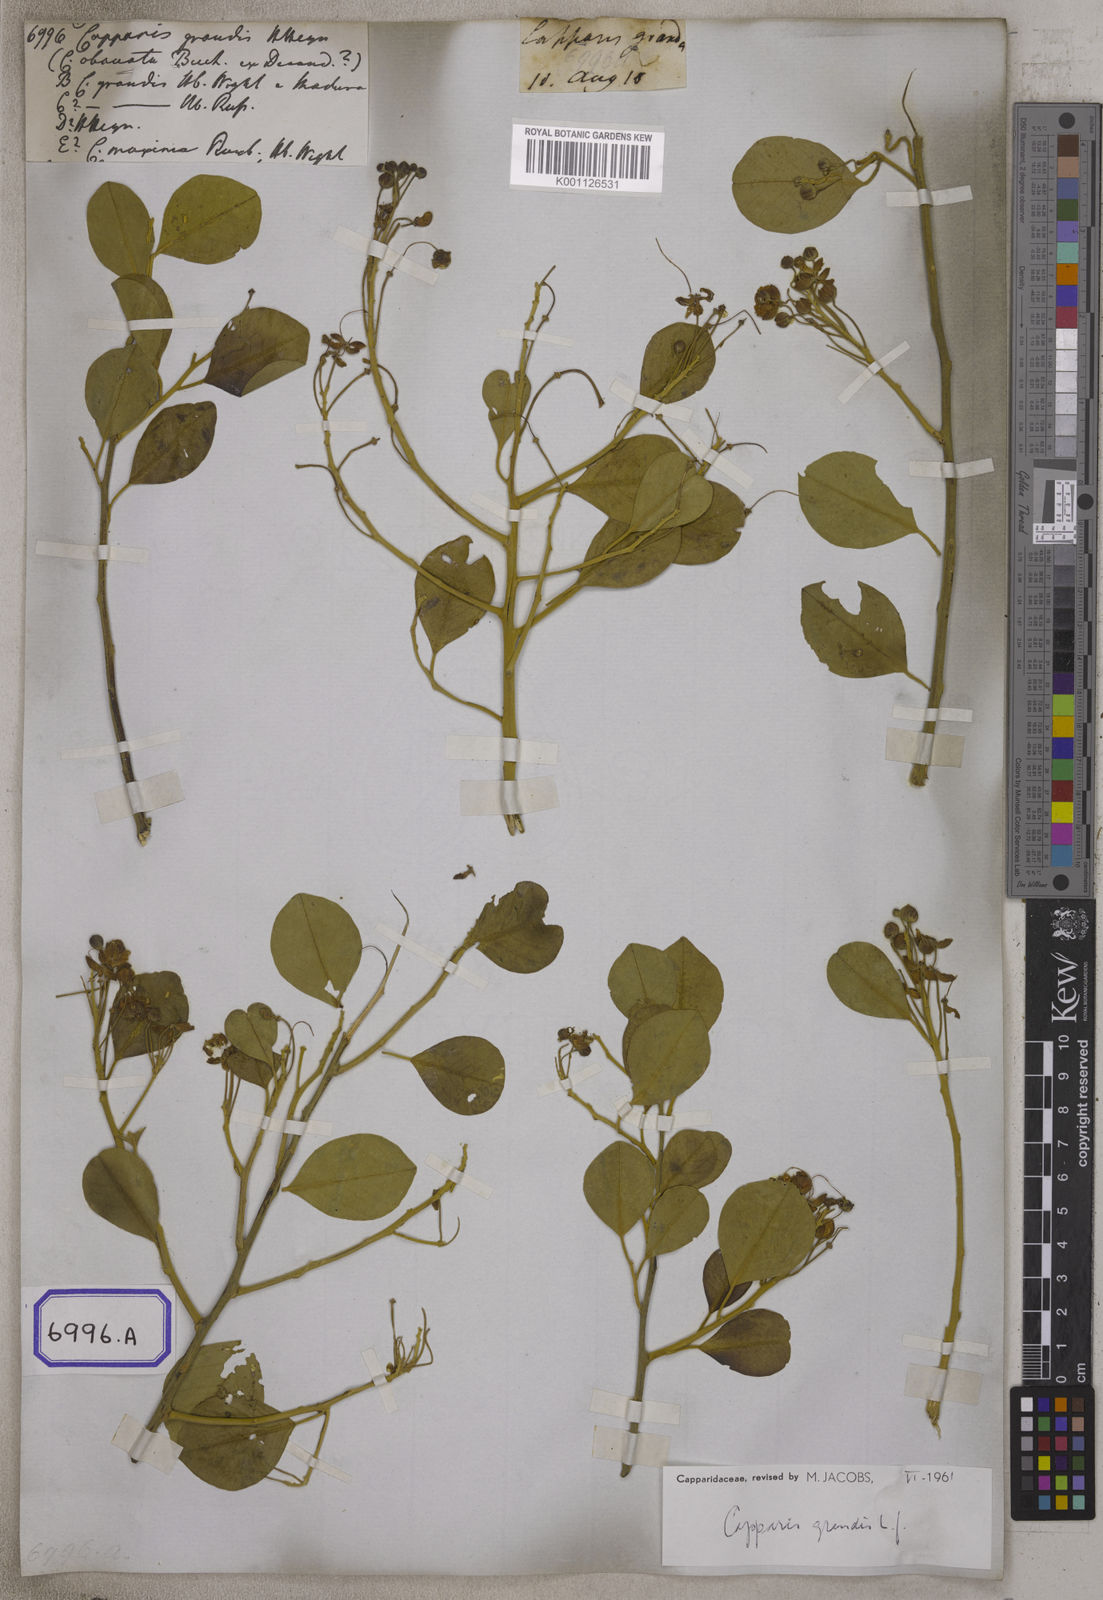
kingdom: Plantae
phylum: Tracheophyta
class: Magnoliopsida
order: Brassicales
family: Capparaceae
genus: Capparis
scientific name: Capparis grandis
